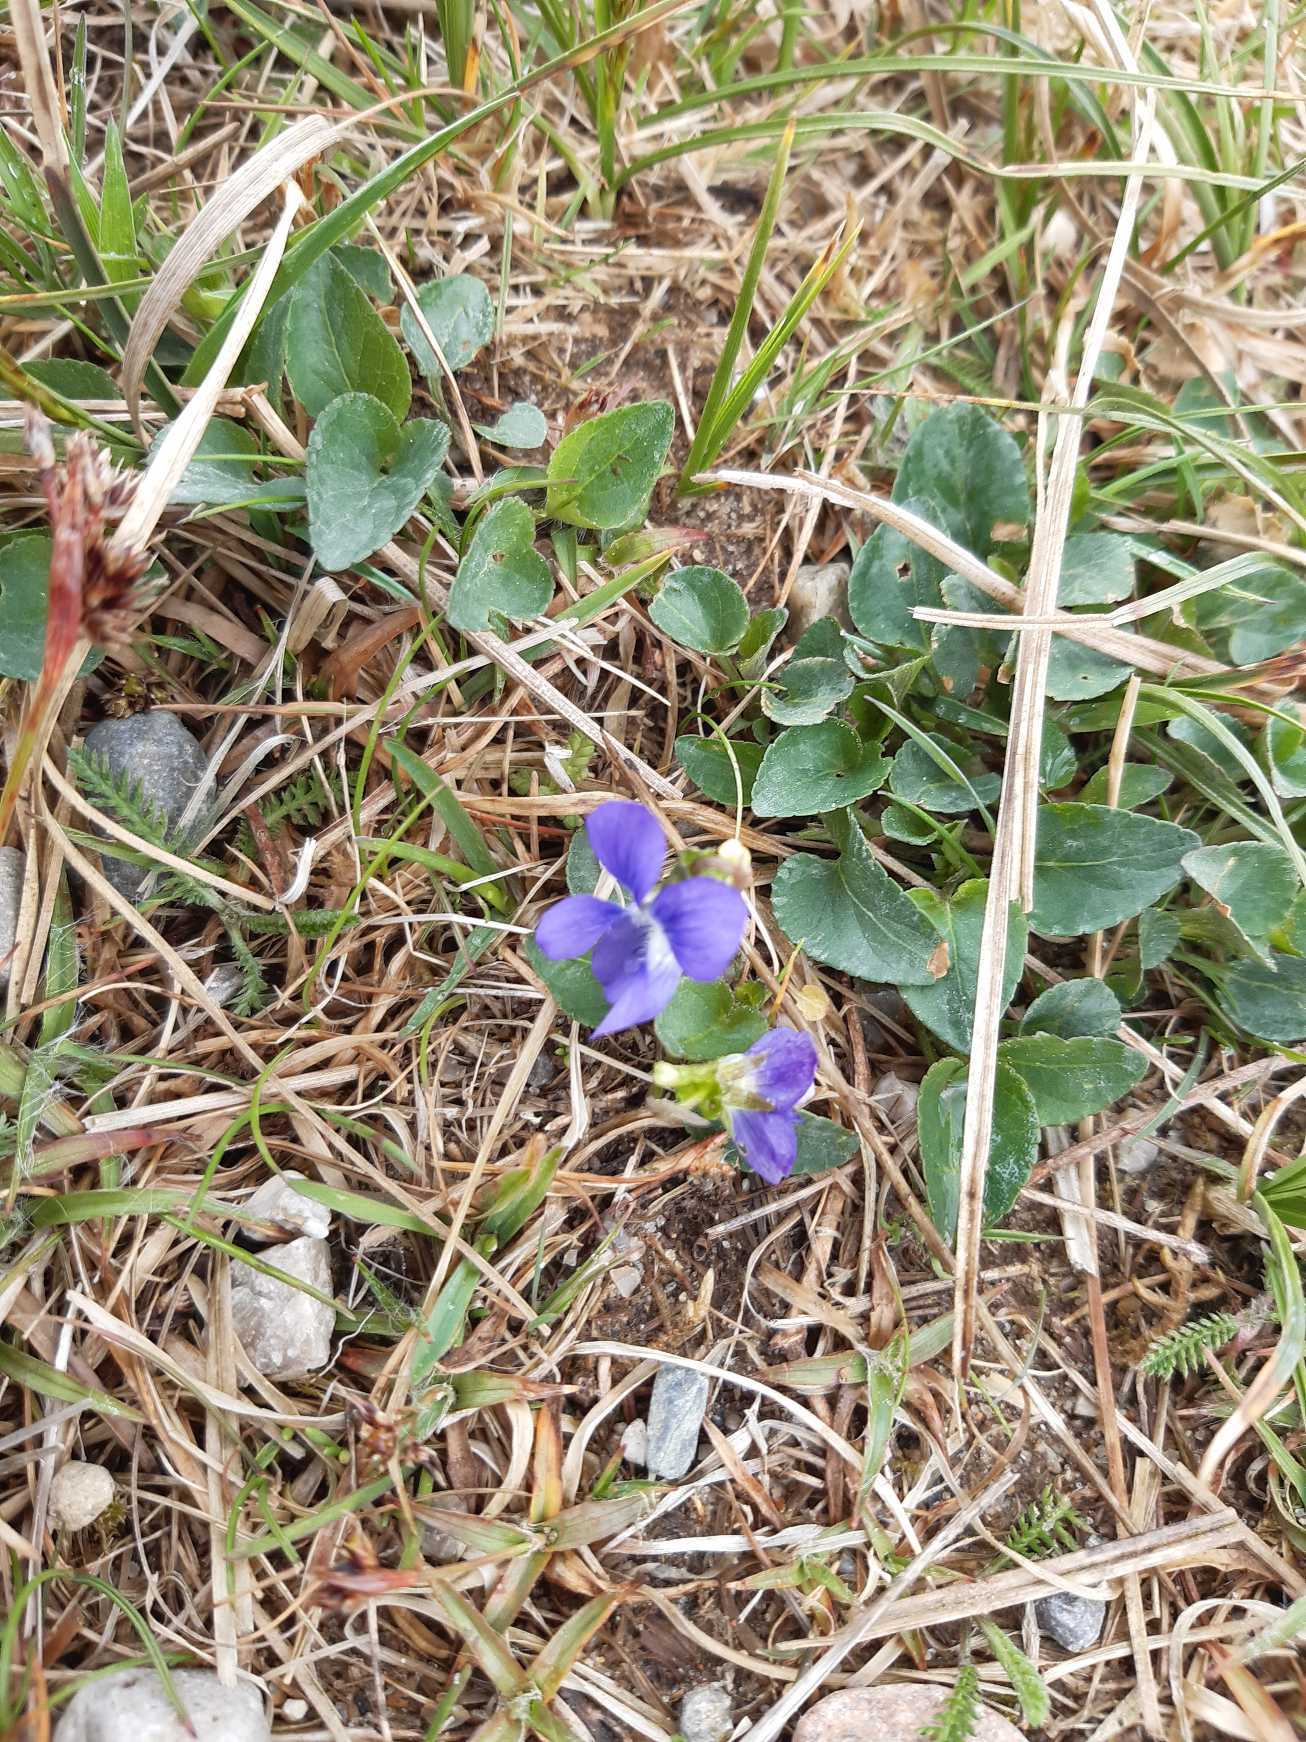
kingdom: Plantae
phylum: Tracheophyta
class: Magnoliopsida
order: Malpighiales
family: Violaceae
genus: Viola
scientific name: Viola canina
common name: Hunde-viol
